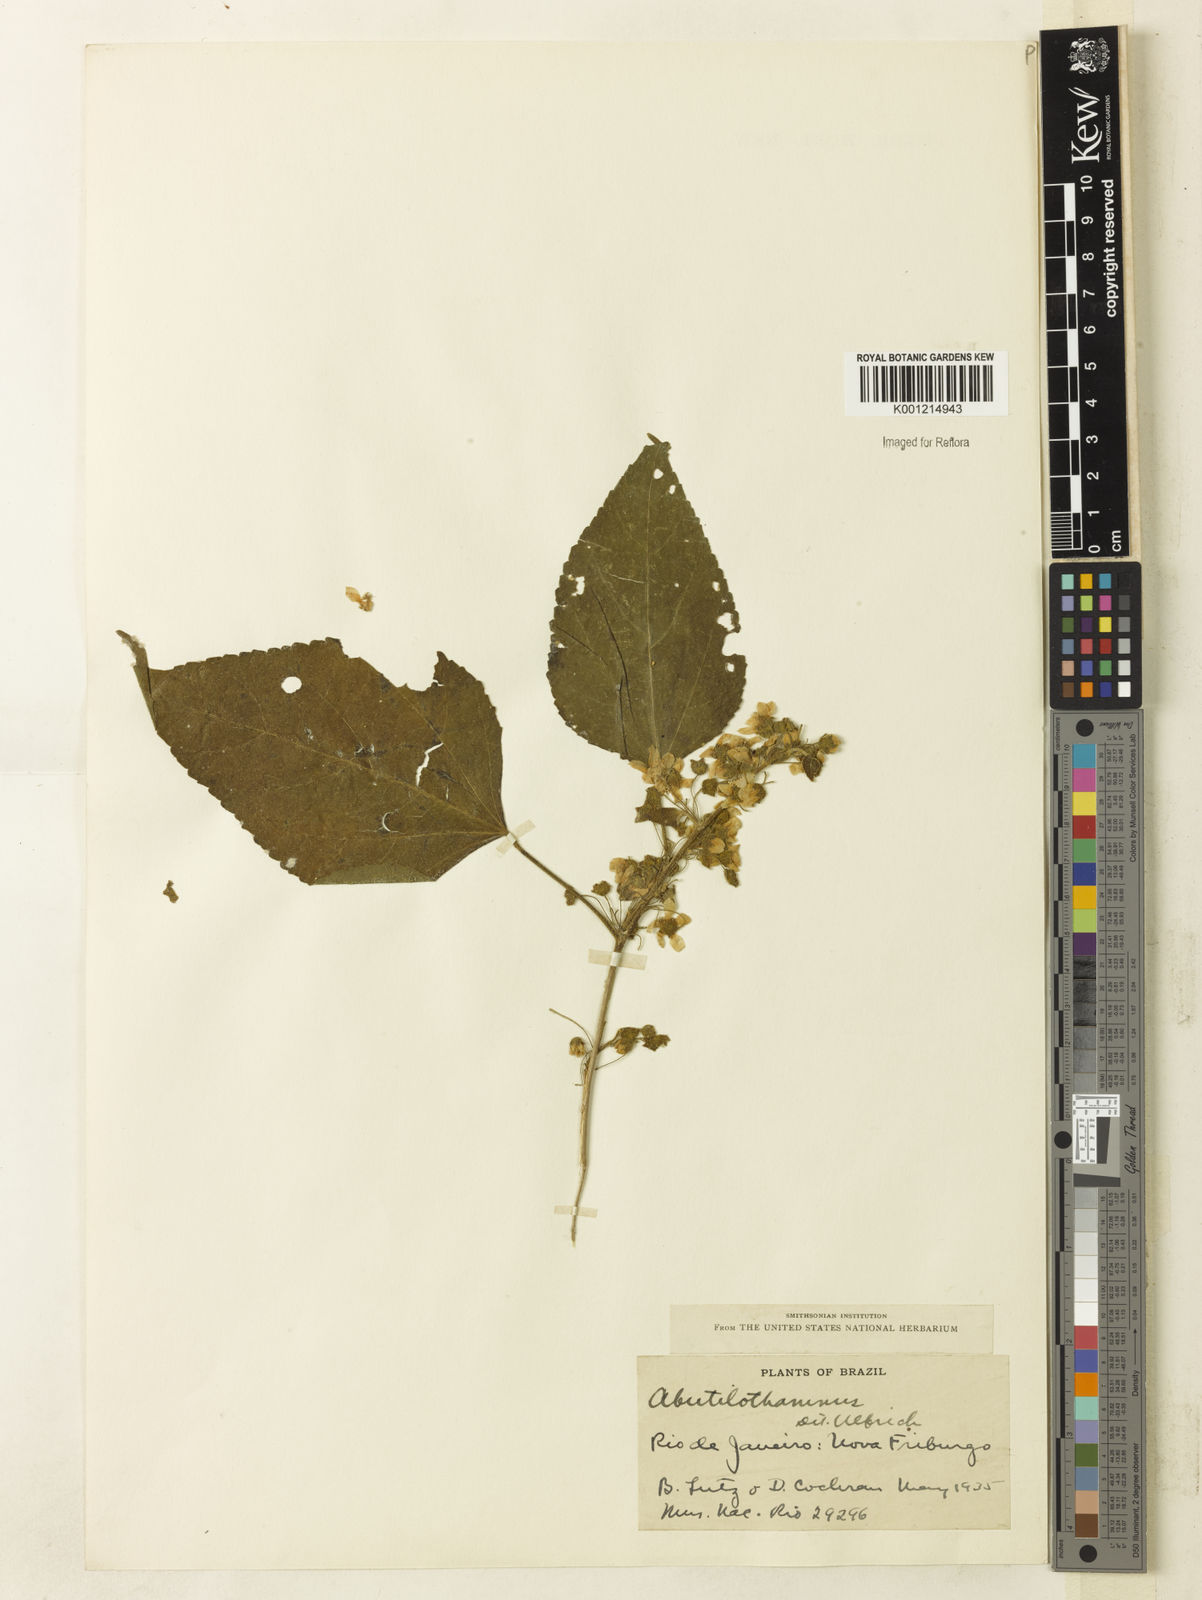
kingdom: Plantae
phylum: Tracheophyta
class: Magnoliopsida
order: Malvales
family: Malvaceae
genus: Bastardiopsis
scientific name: Bastardiopsis grewiifolia
